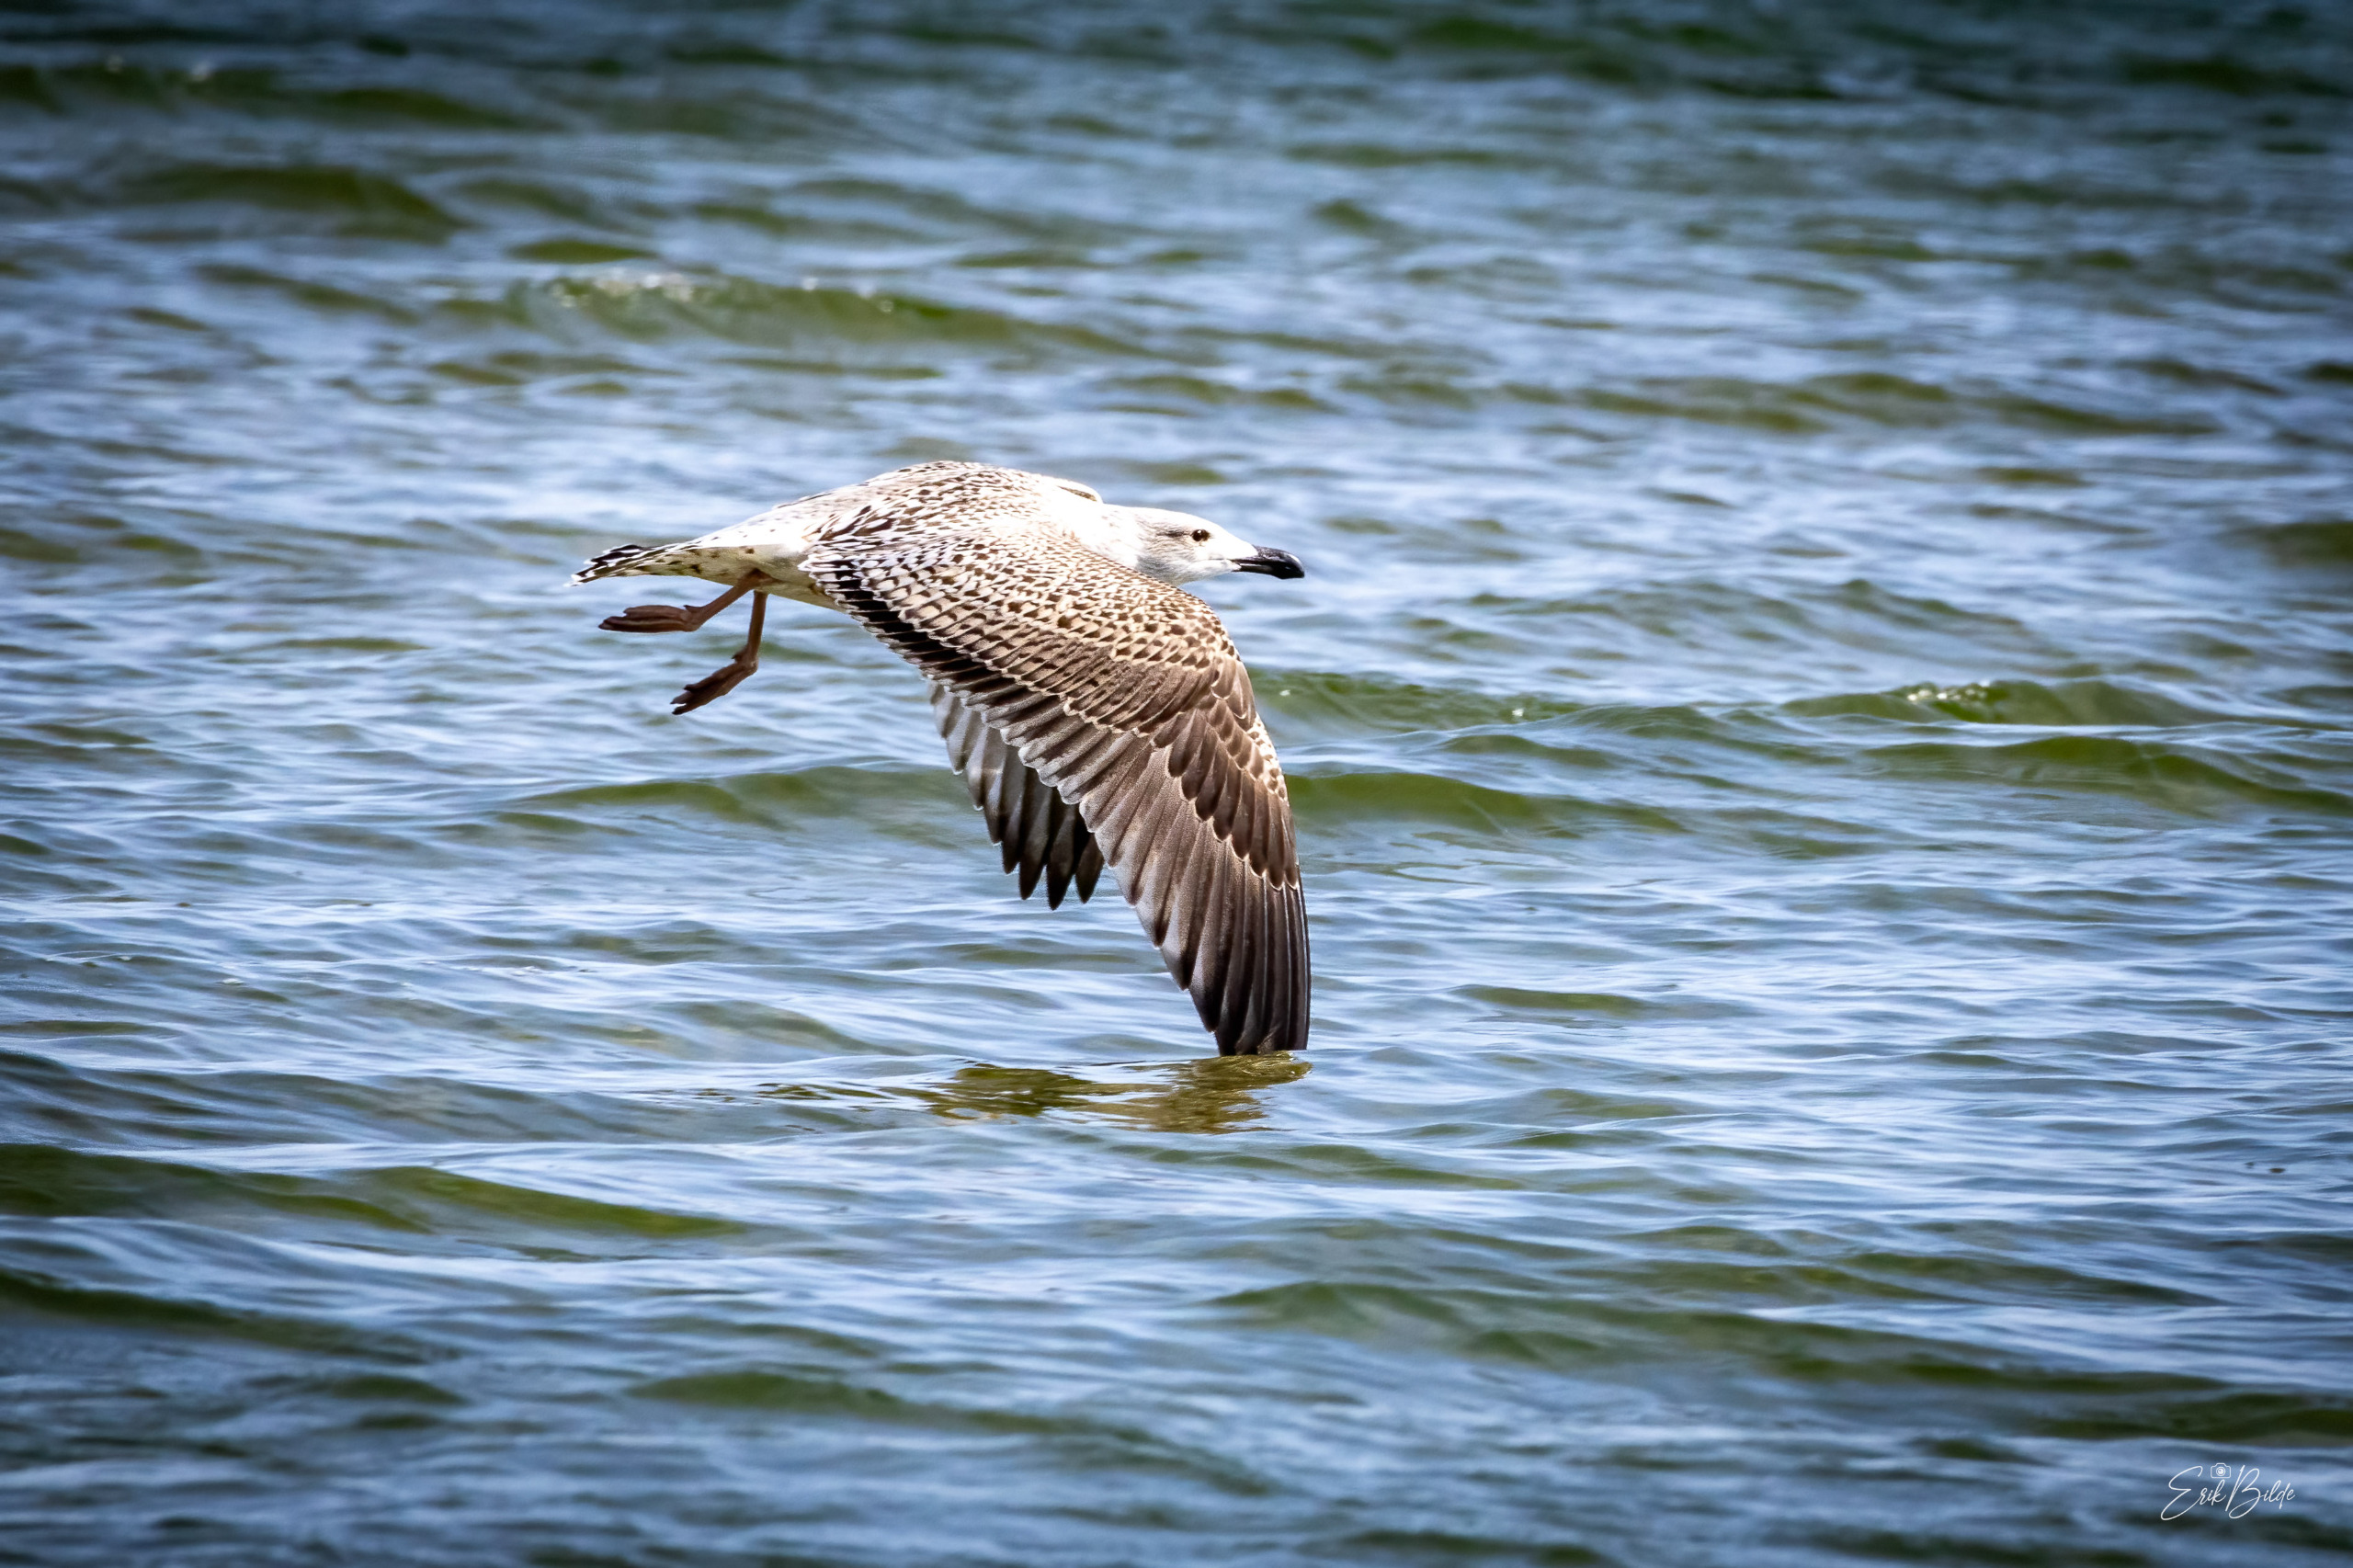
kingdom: Animalia
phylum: Chordata
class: Aves
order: Charadriiformes
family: Laridae
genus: Larus
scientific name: Larus marinus
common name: Svartbag
